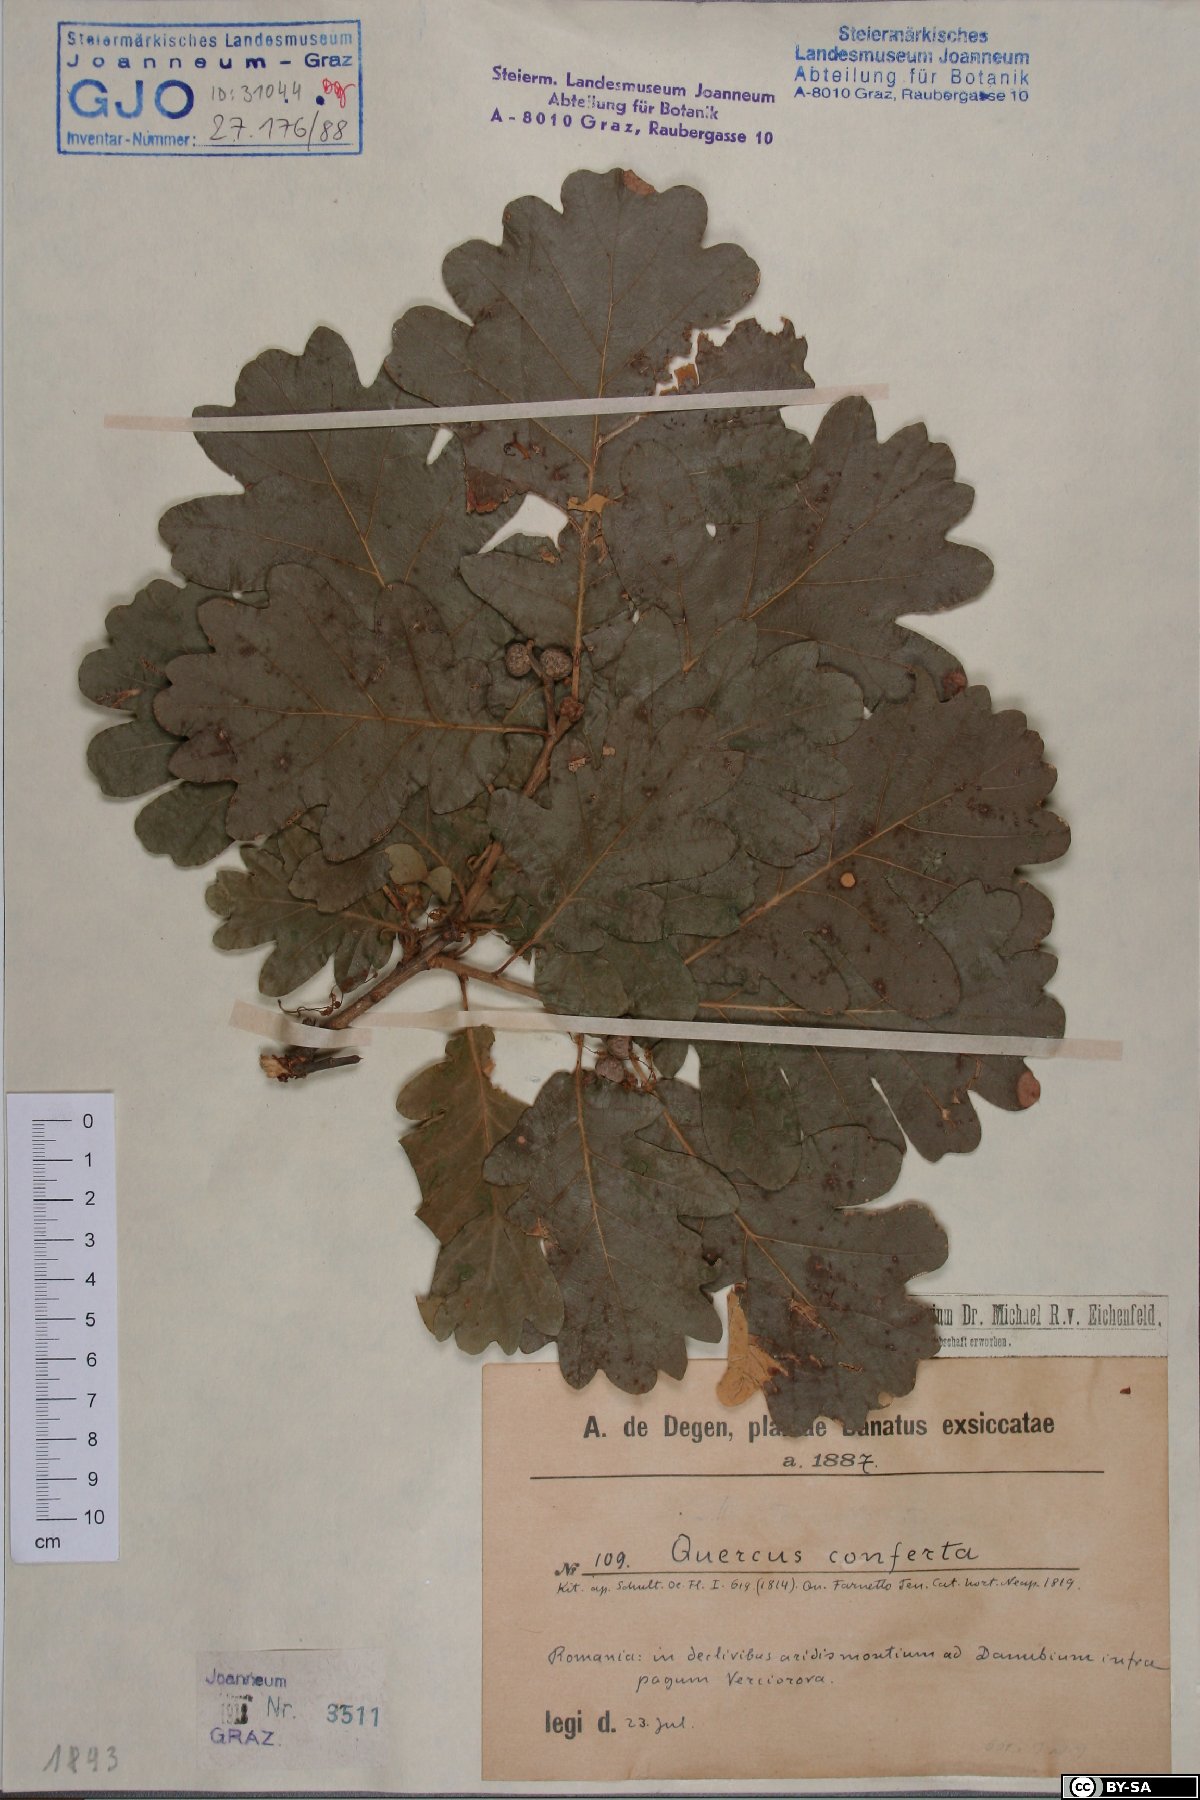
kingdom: Plantae
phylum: Tracheophyta
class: Magnoliopsida
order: Fagales
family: Fagaceae
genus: Quercus
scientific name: Quercus conferta
